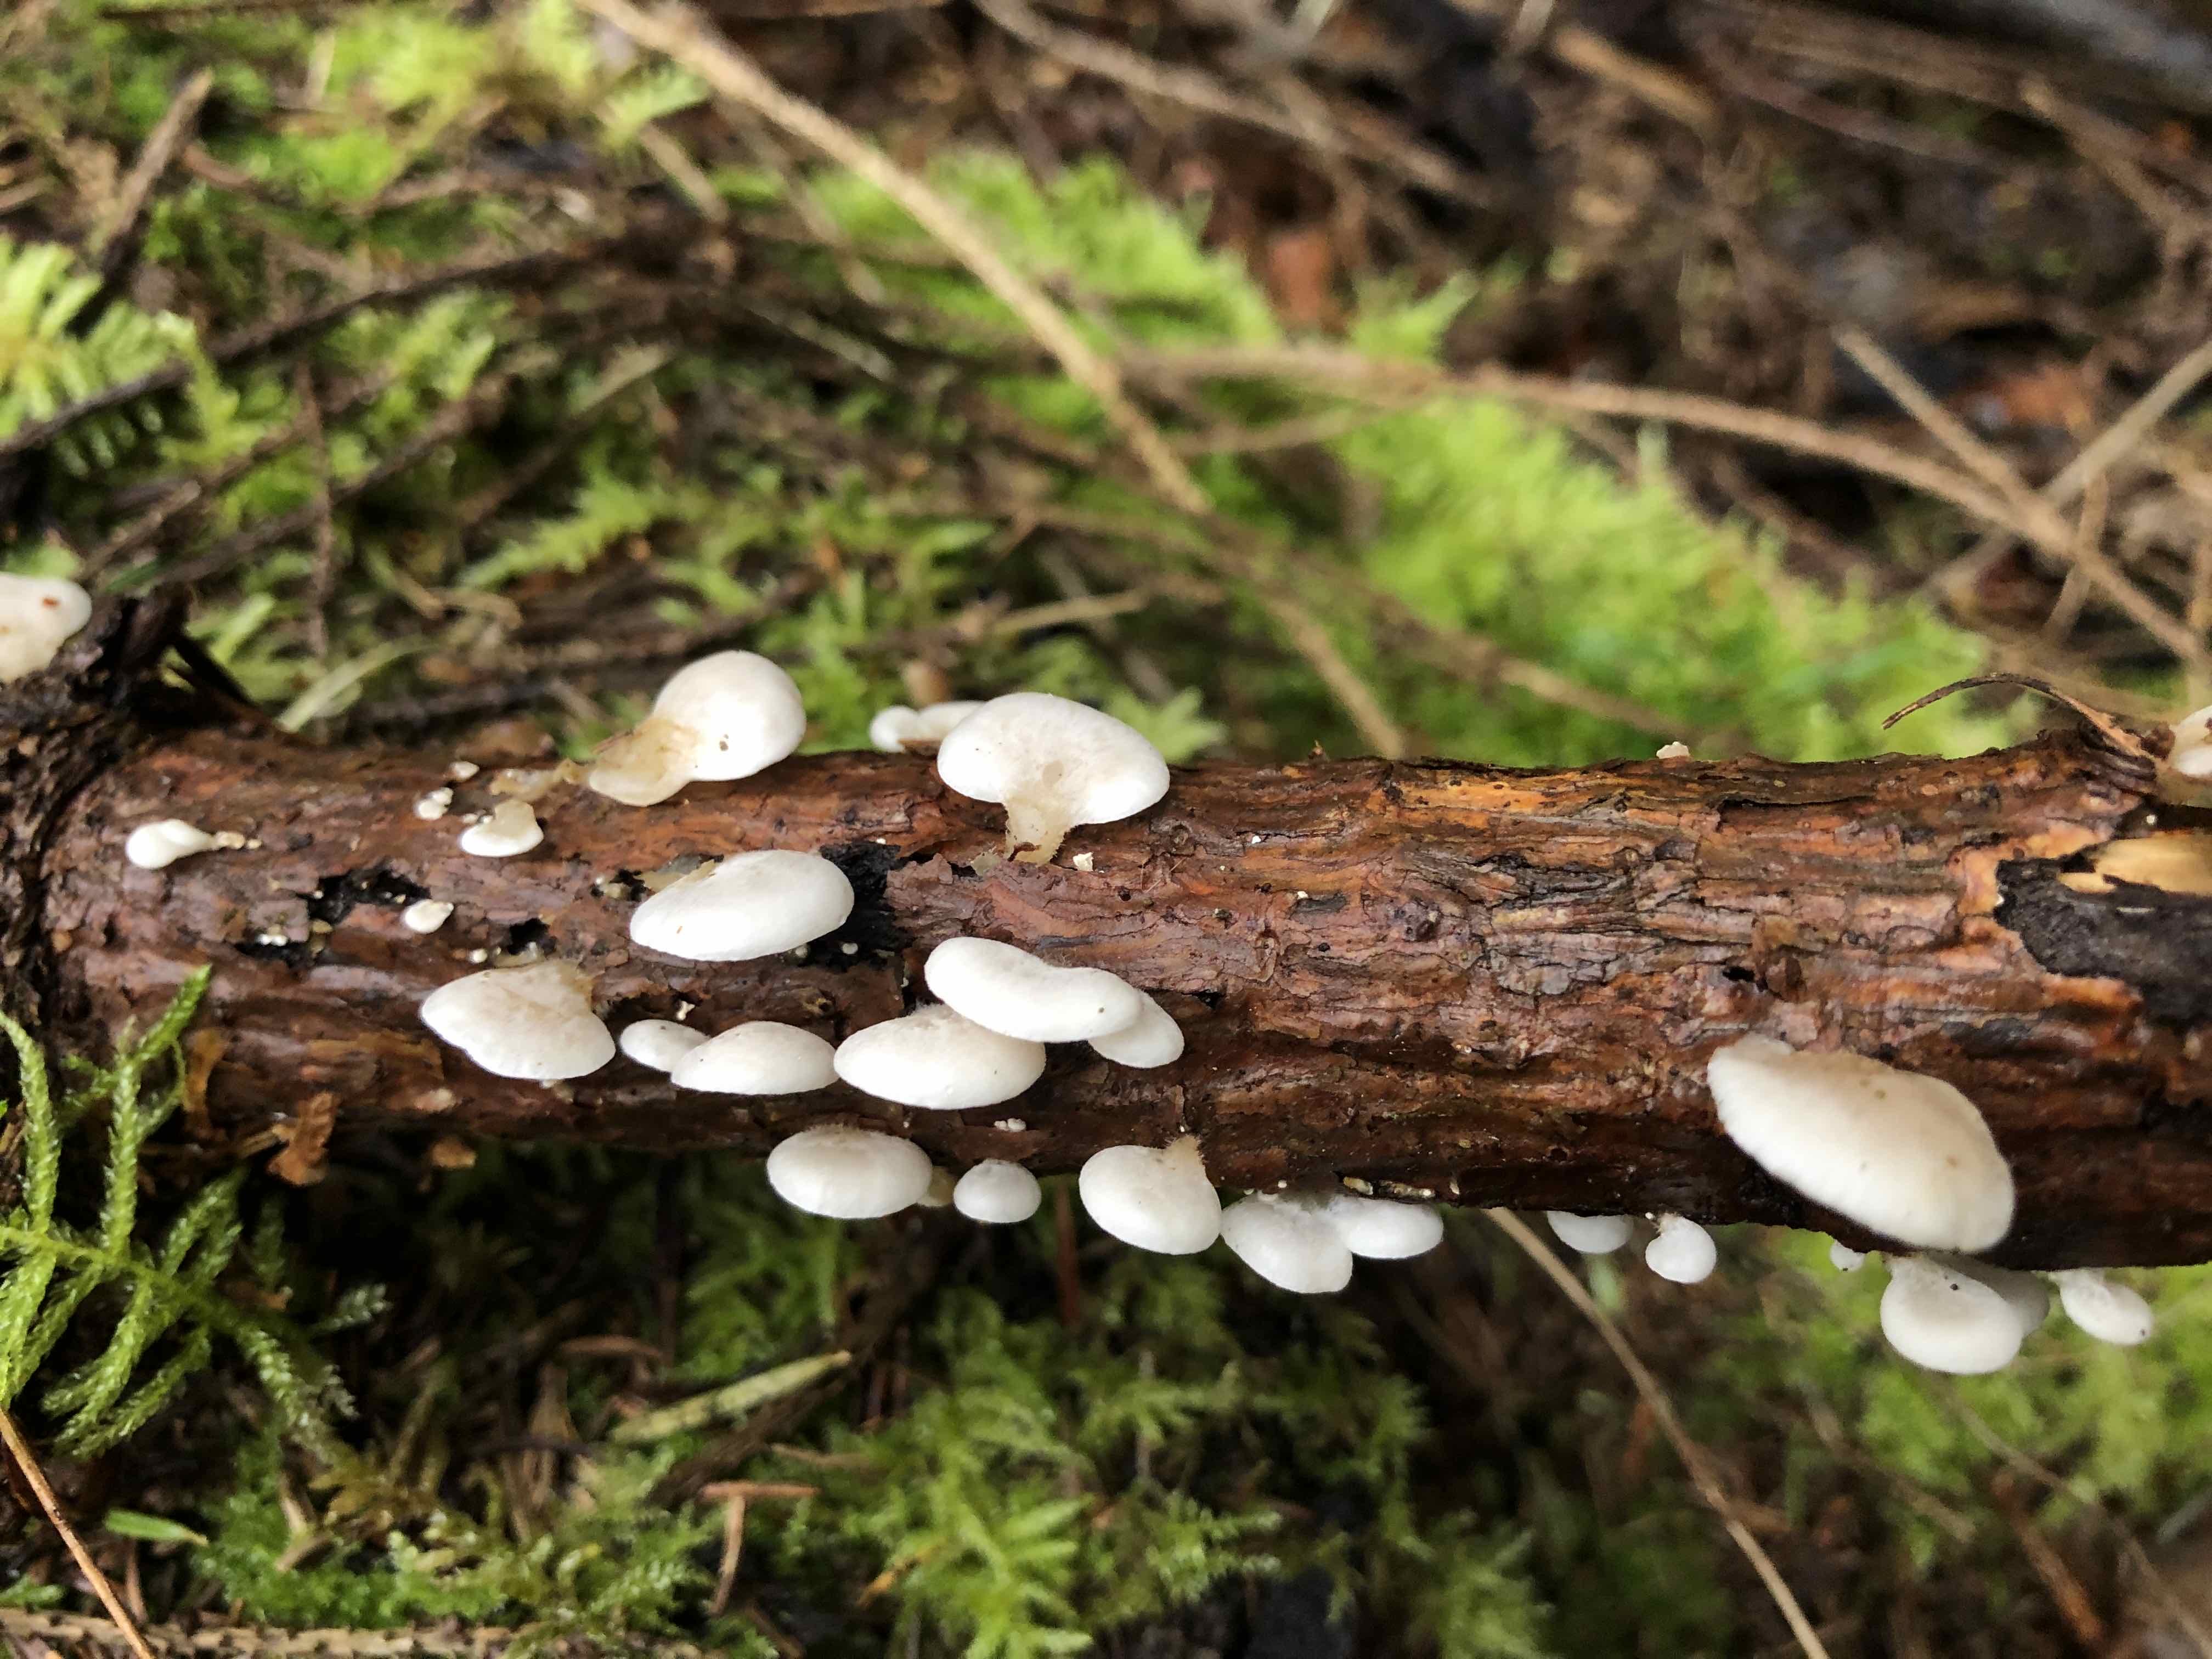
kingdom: Fungi
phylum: Basidiomycota
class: Agaricomycetes
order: Agaricales
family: Mycenaceae
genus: Panellus
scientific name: Panellus mitis
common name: mild epaulethat
